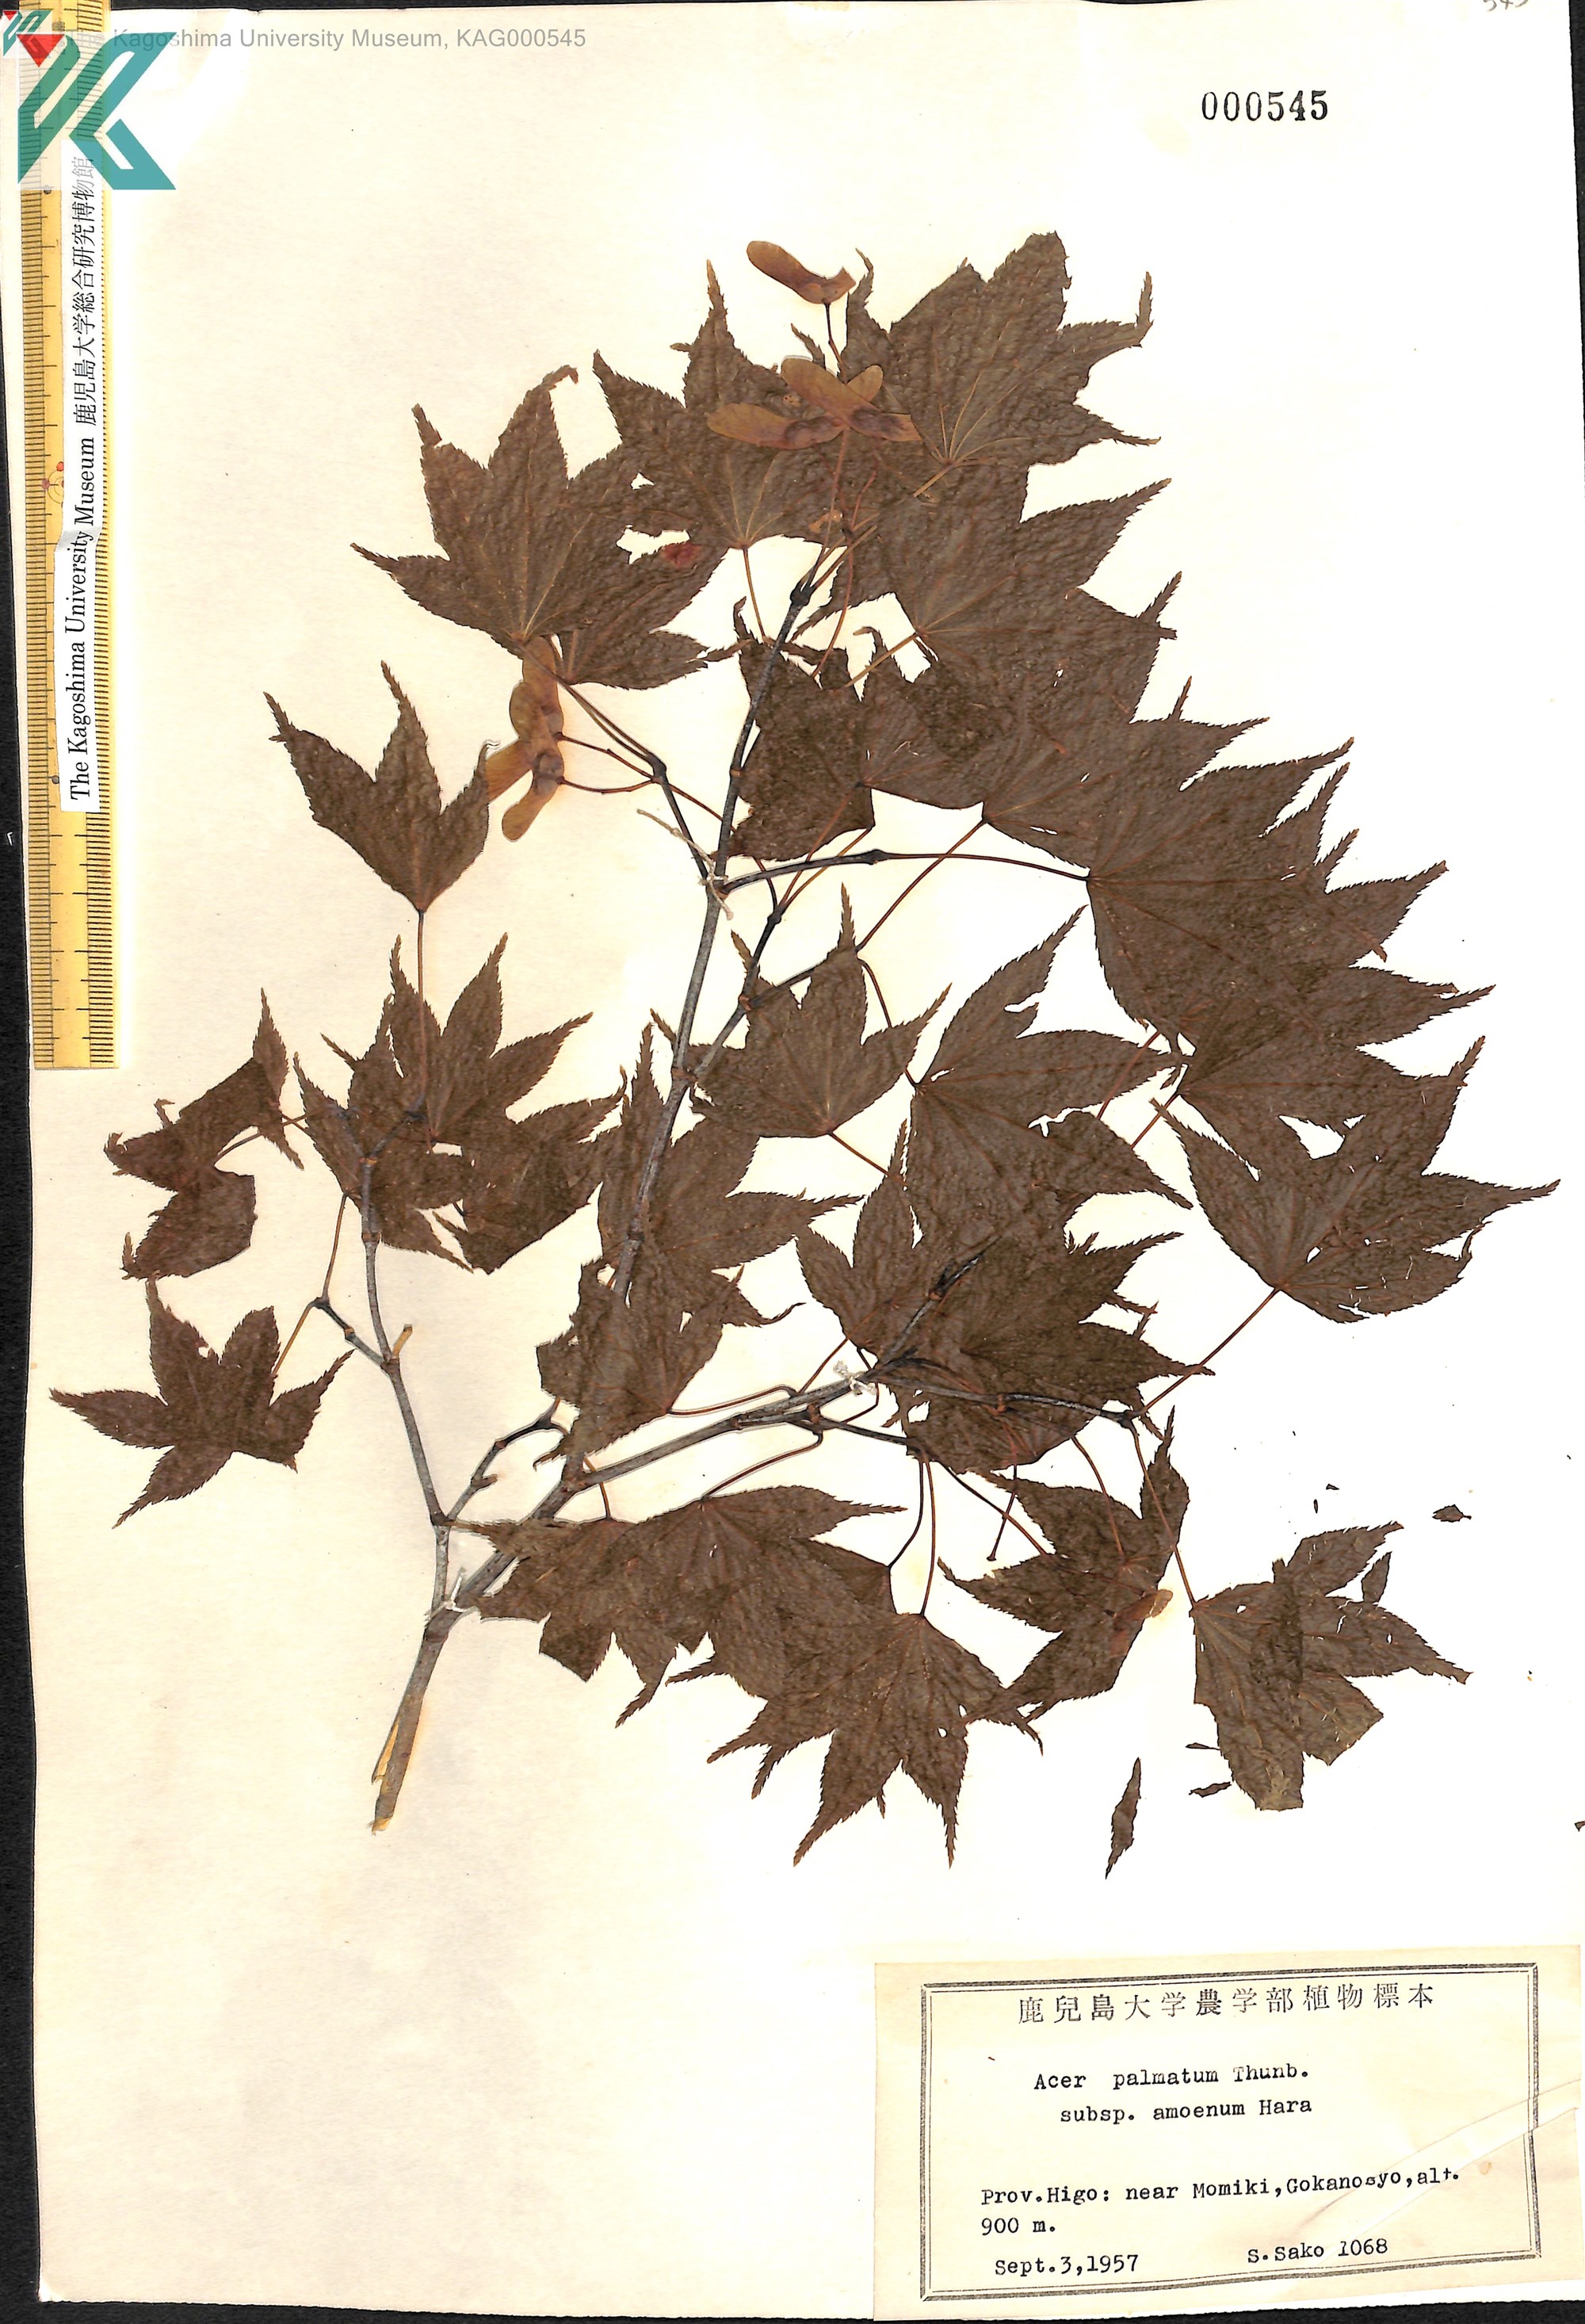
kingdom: Plantae
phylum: Tracheophyta
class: Magnoliopsida
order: Sapindales
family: Sapindaceae
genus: Acer
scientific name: Acer palmatum
